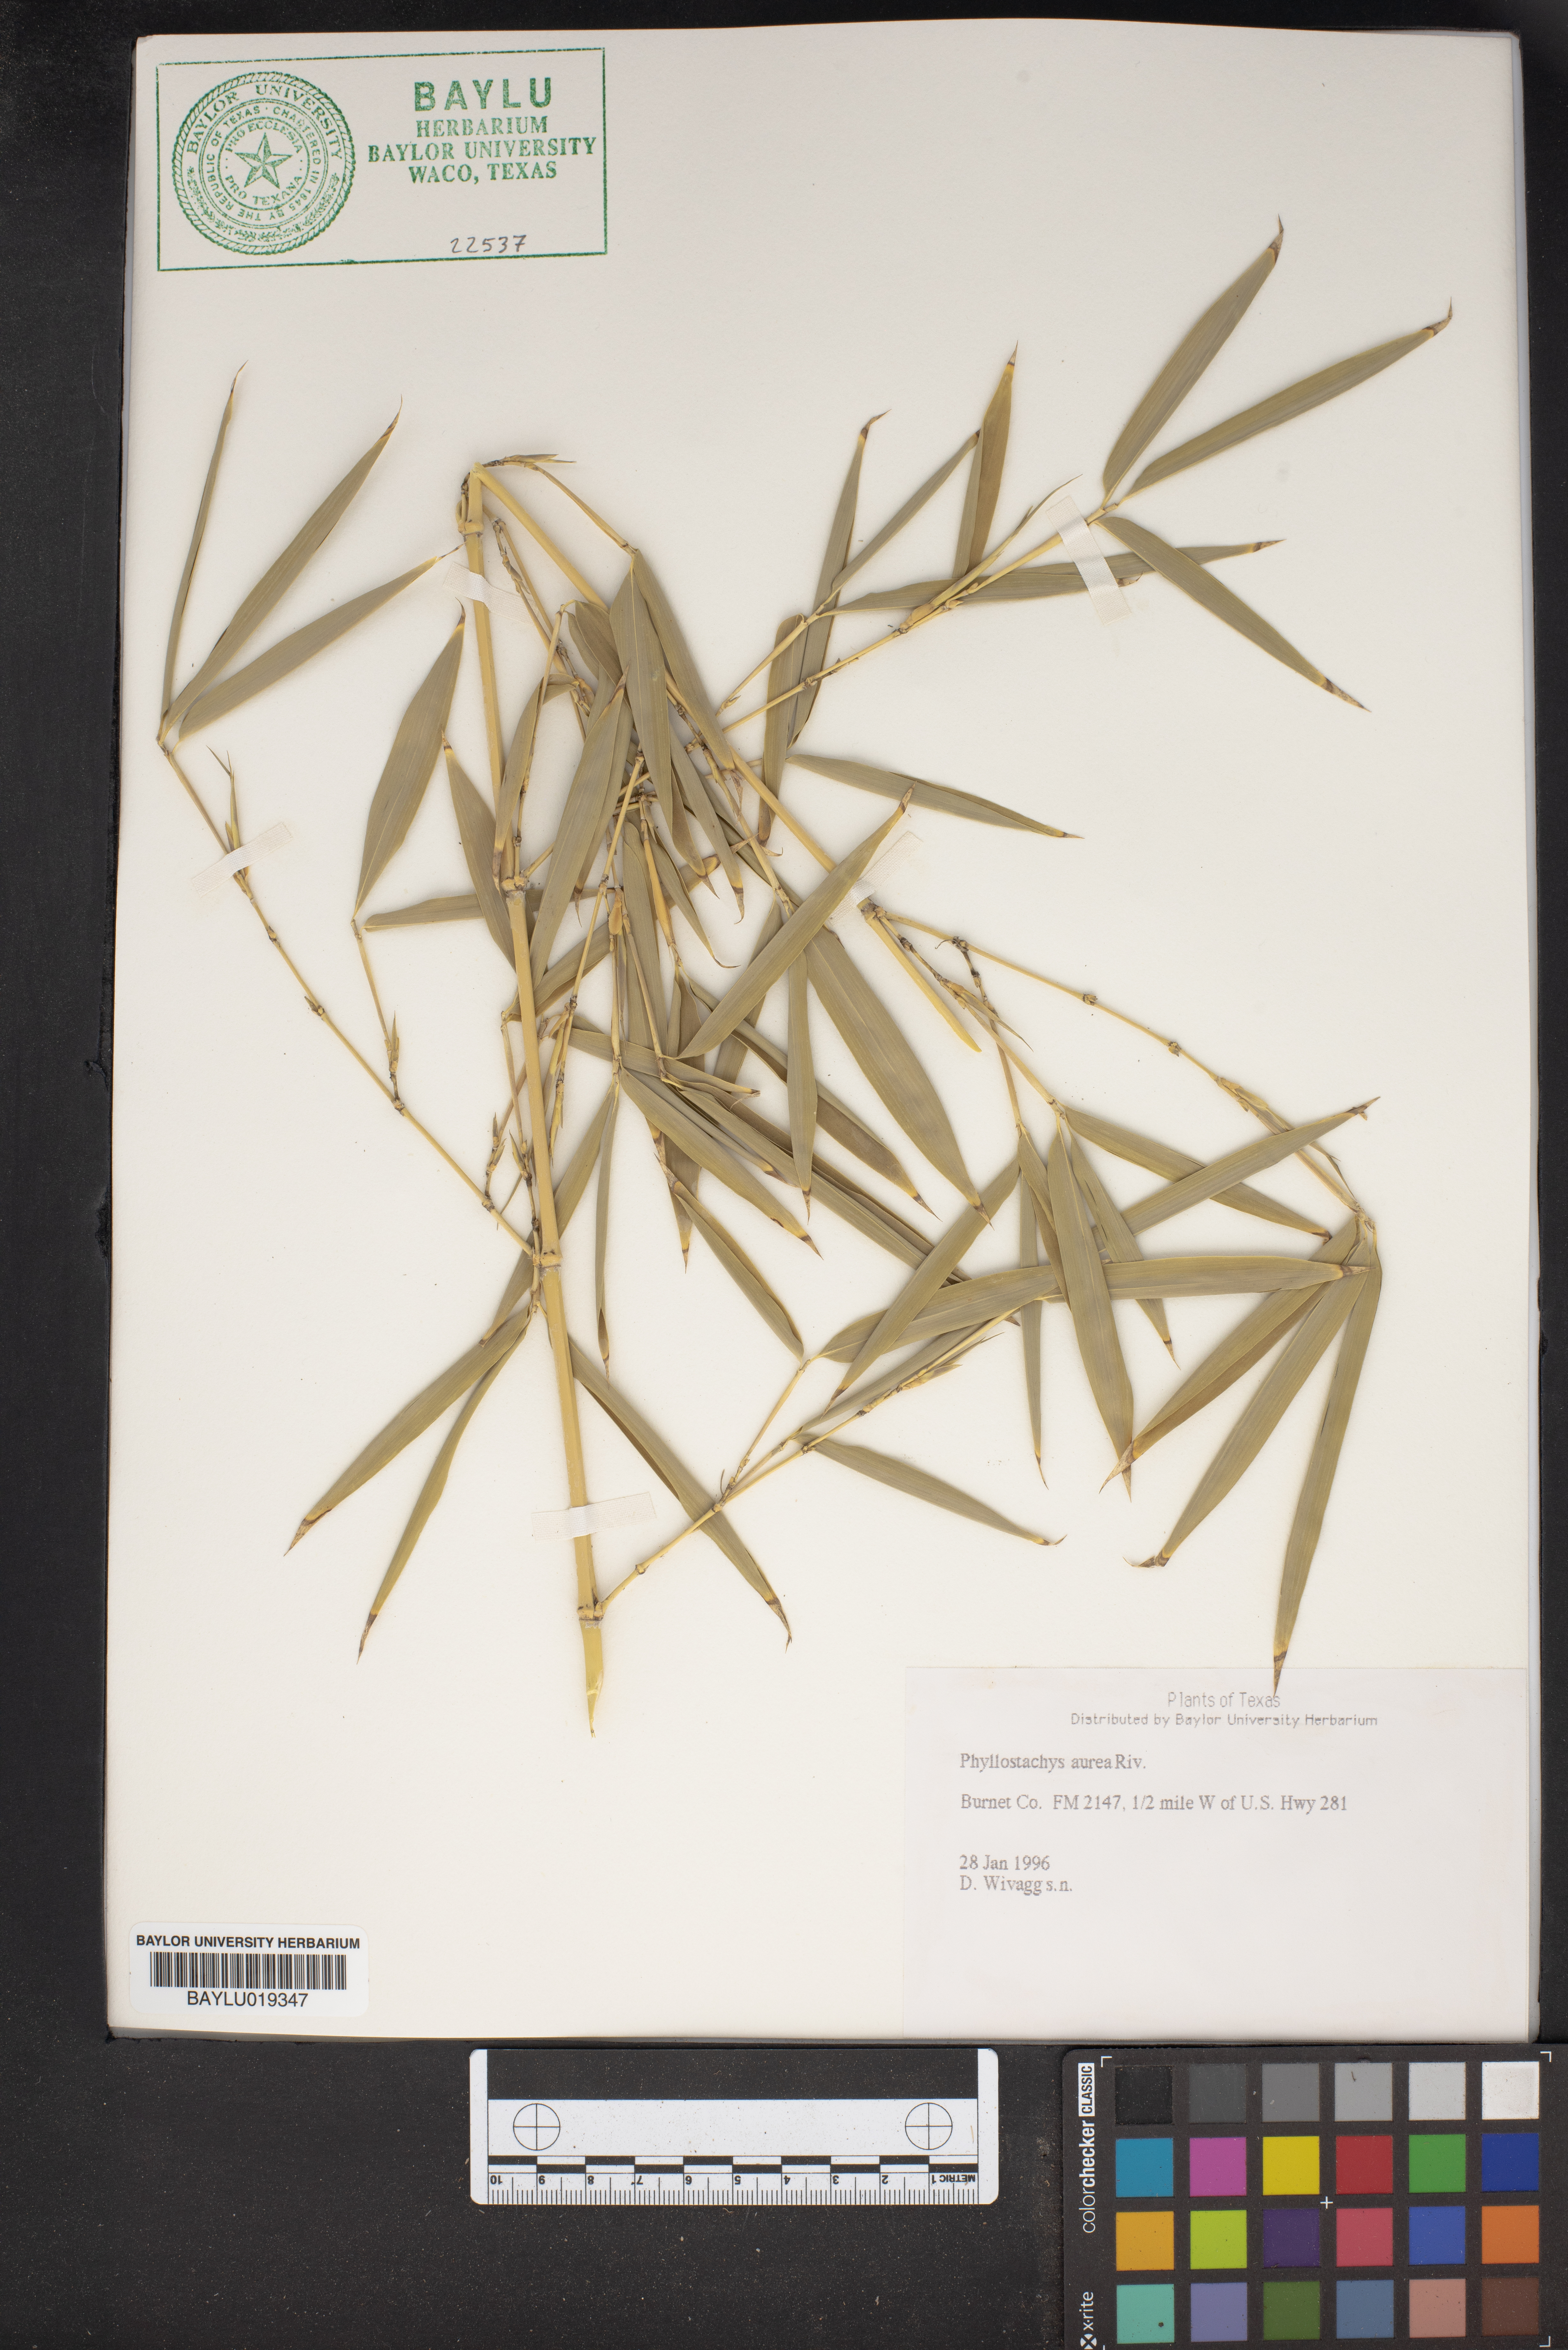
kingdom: Plantae
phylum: Tracheophyta
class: Liliopsida
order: Poales
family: Poaceae
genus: Phyllostachys
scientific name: Phyllostachys aurea
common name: Golden bamboo
